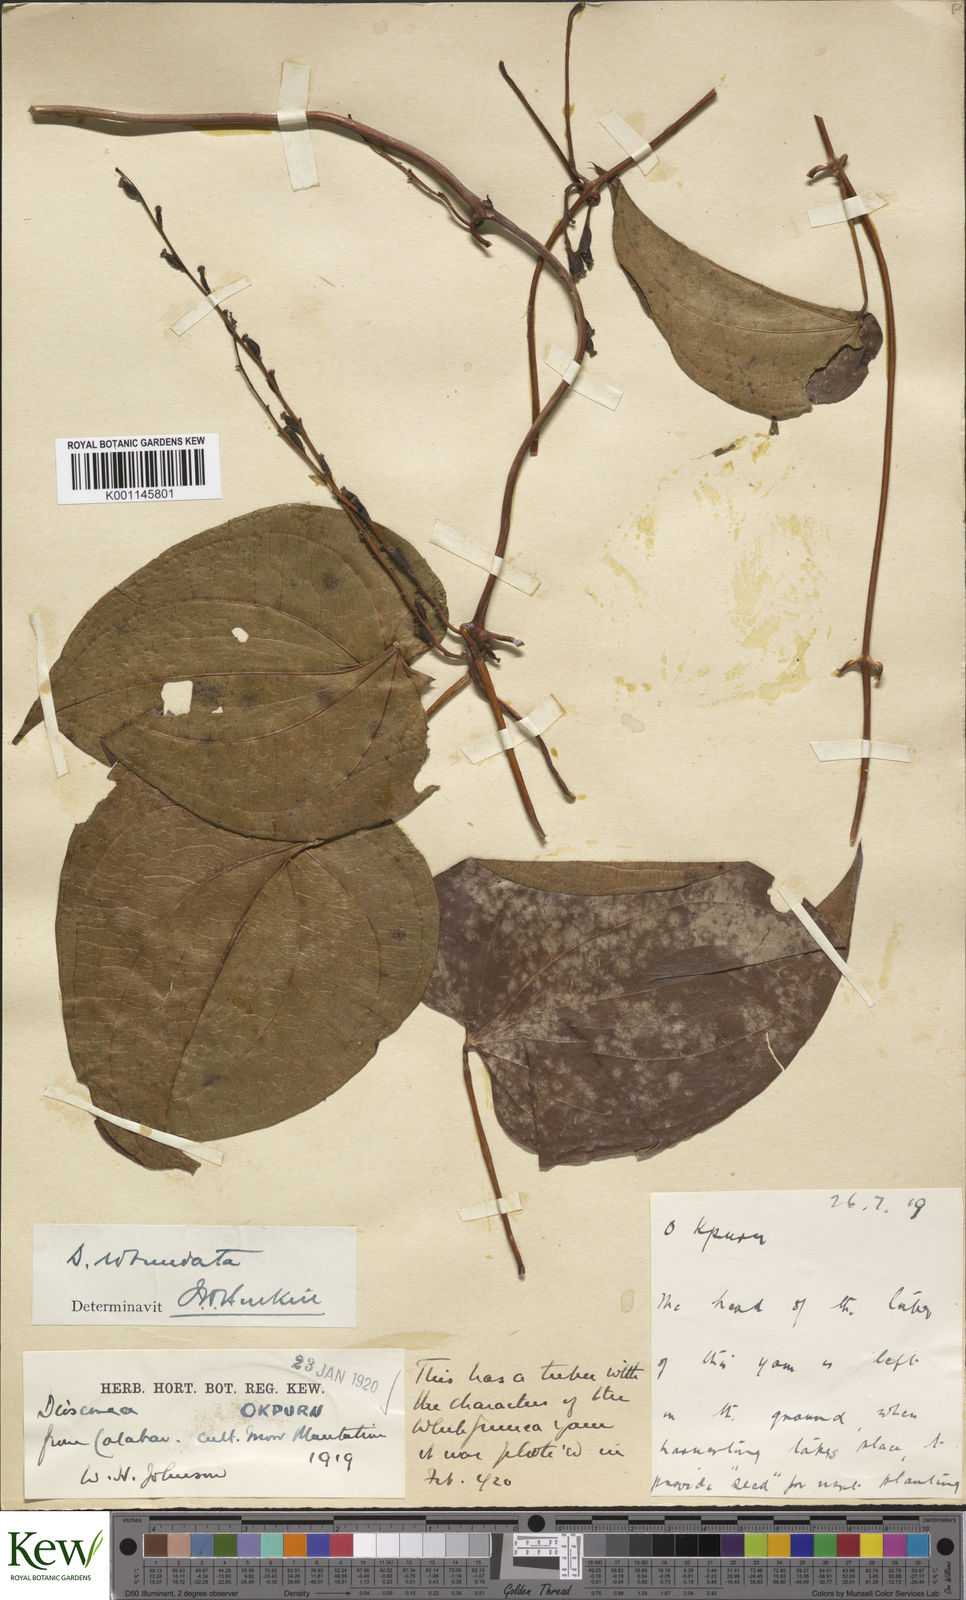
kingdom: Plantae
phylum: Tracheophyta
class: Liliopsida
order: Dioscoreales
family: Dioscoreaceae
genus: Dioscorea
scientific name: Dioscorea cayenensis
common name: Attoto yam
